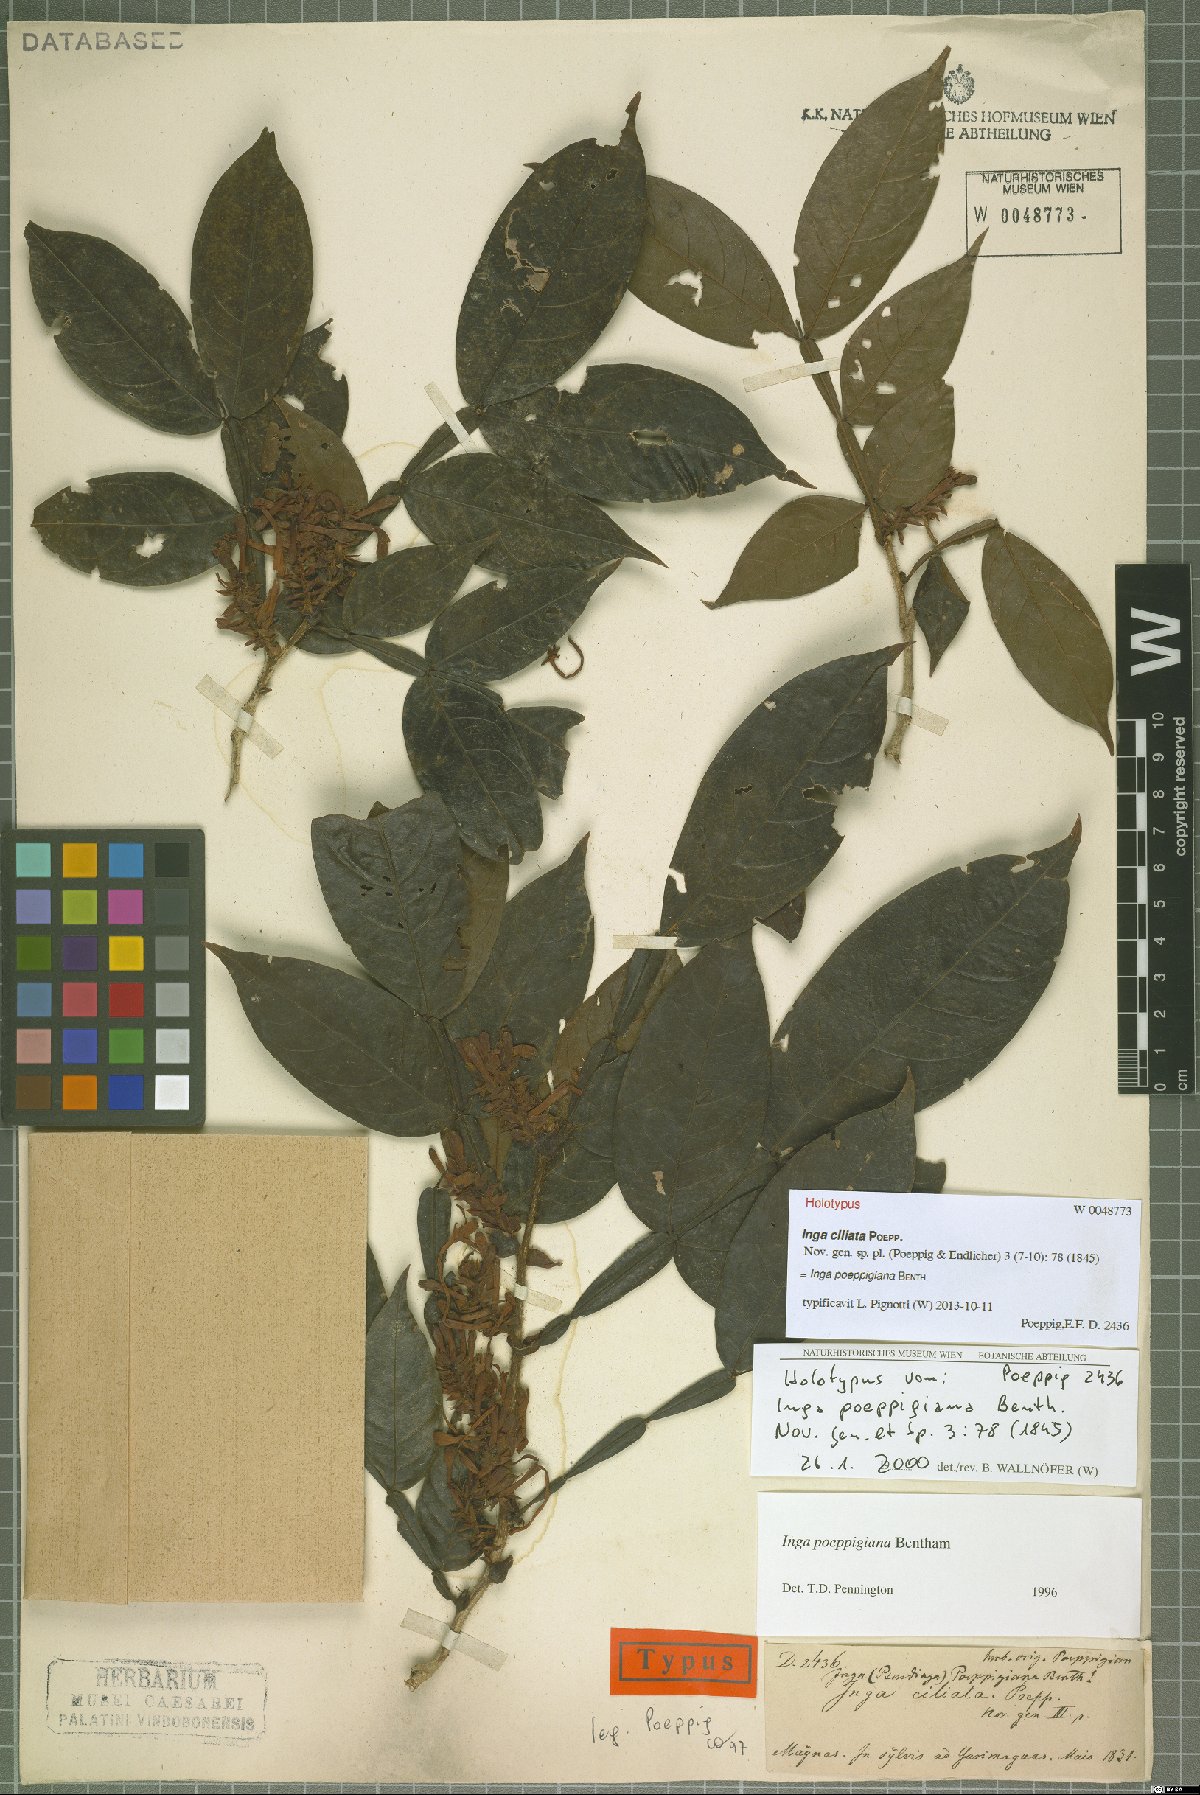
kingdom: Plantae
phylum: Tracheophyta
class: Magnoliopsida
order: Fabales
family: Fabaceae
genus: Inga
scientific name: Inga poeppigiana
